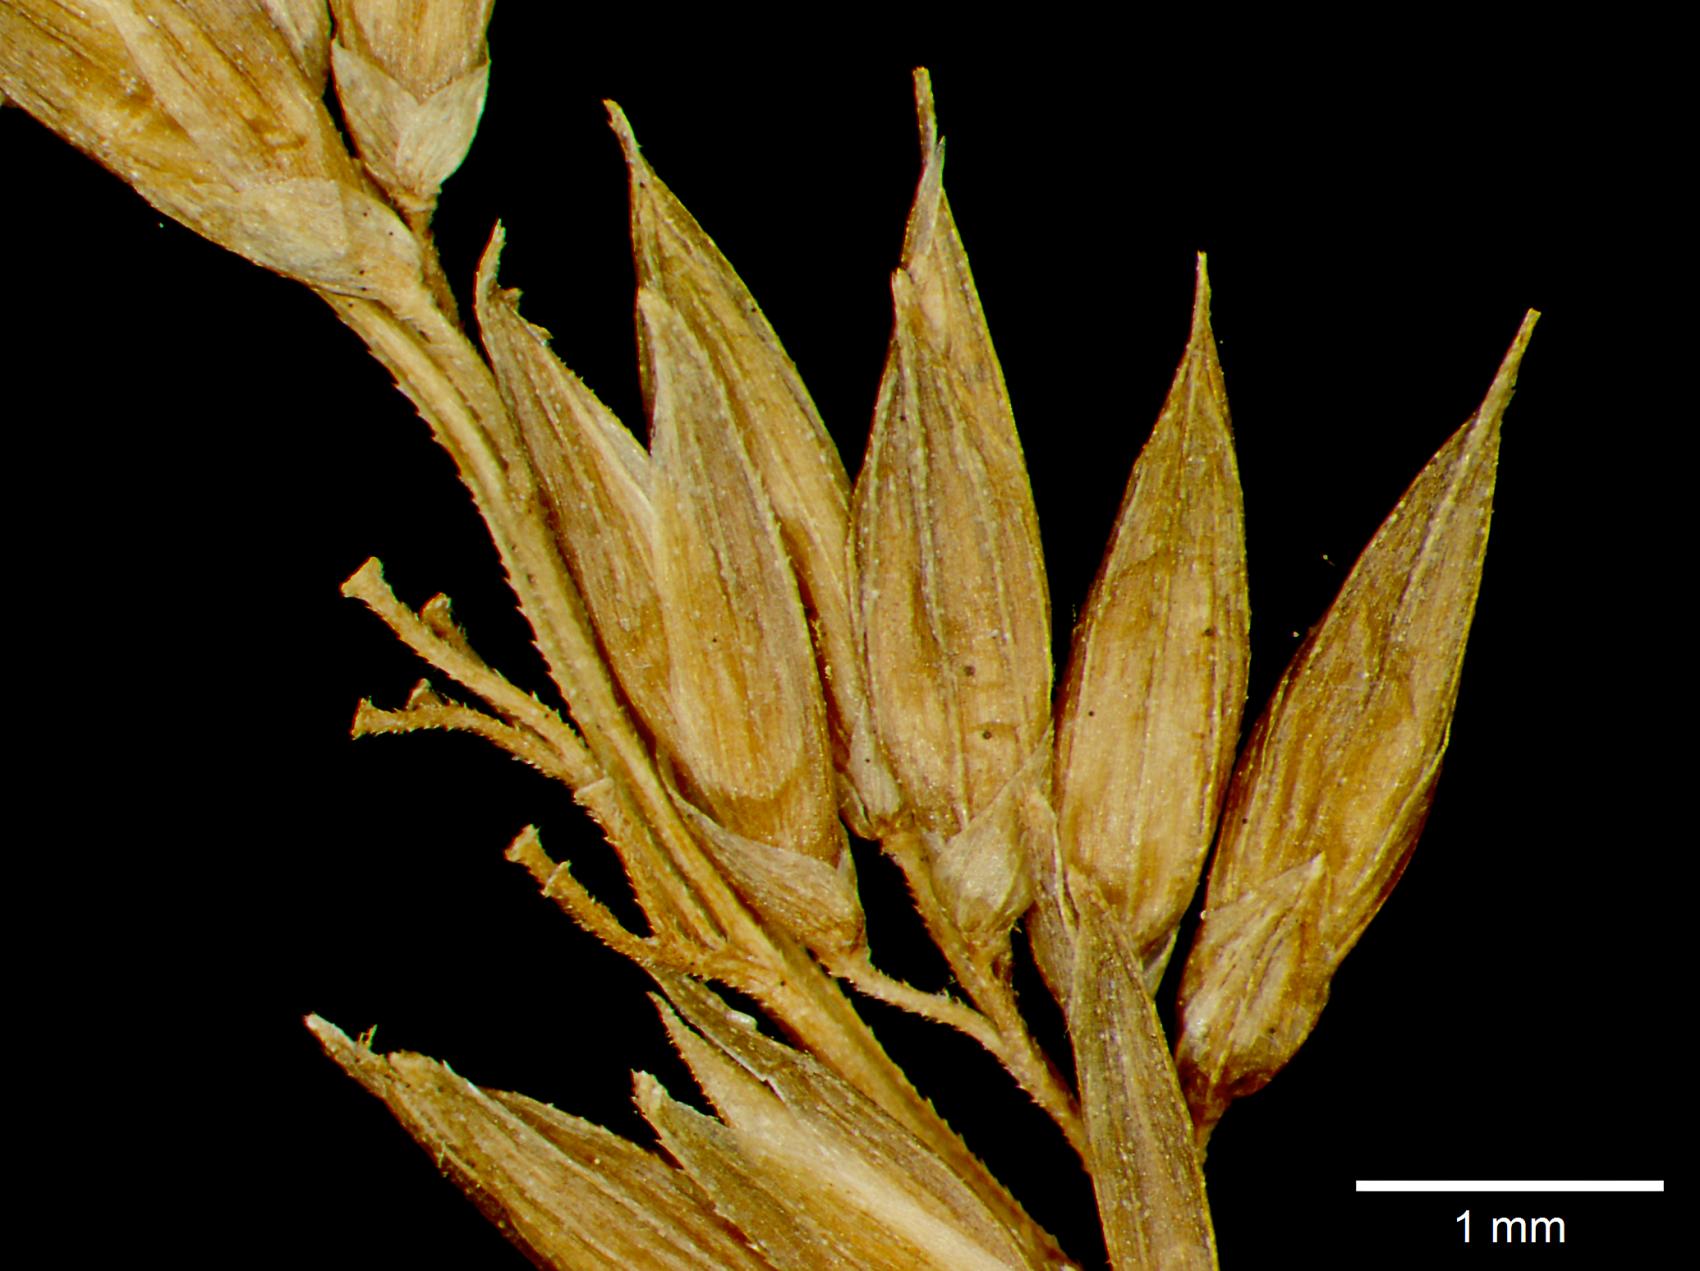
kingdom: Plantae
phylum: Tracheophyta
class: Liliopsida
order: Poales
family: Poaceae
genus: Hymenachne
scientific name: Hymenachne donacifolia
